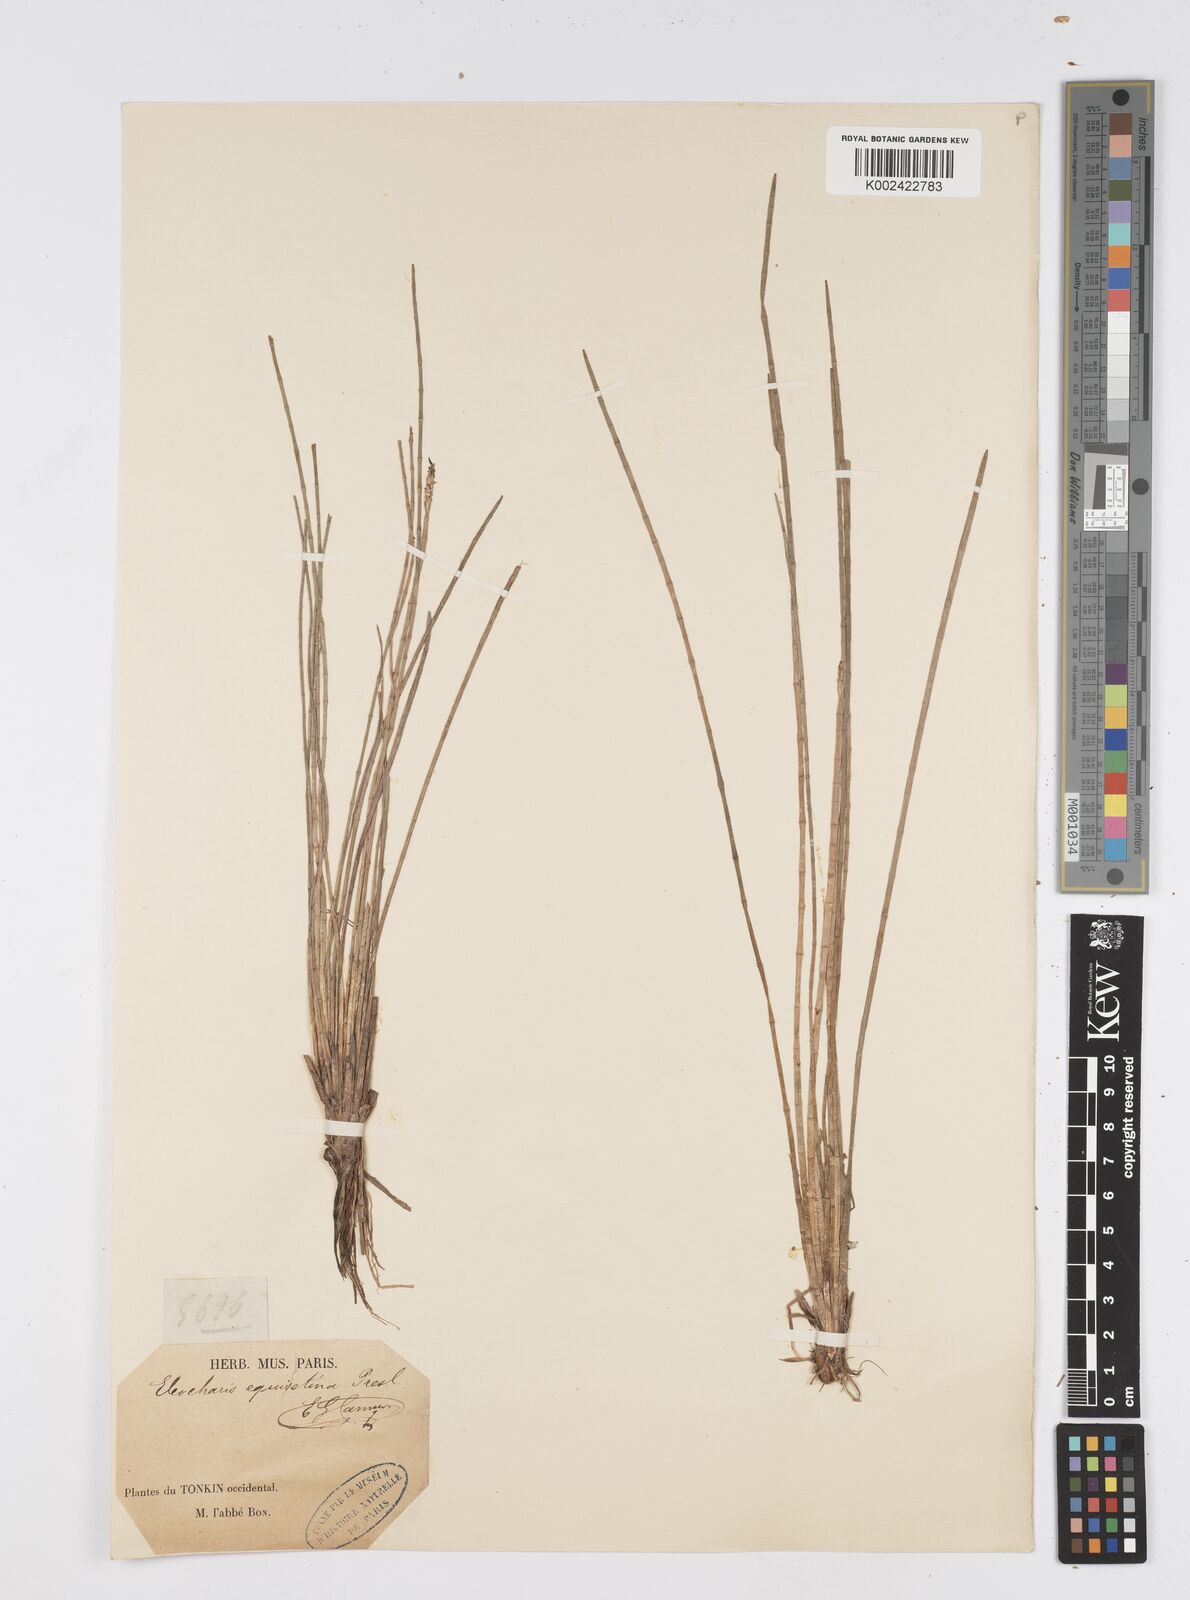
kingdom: Plantae
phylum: Tracheophyta
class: Liliopsida
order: Poales
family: Cyperaceae
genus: Eleocharis
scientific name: Eleocharis dulcis
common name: Chinese water chestnut
